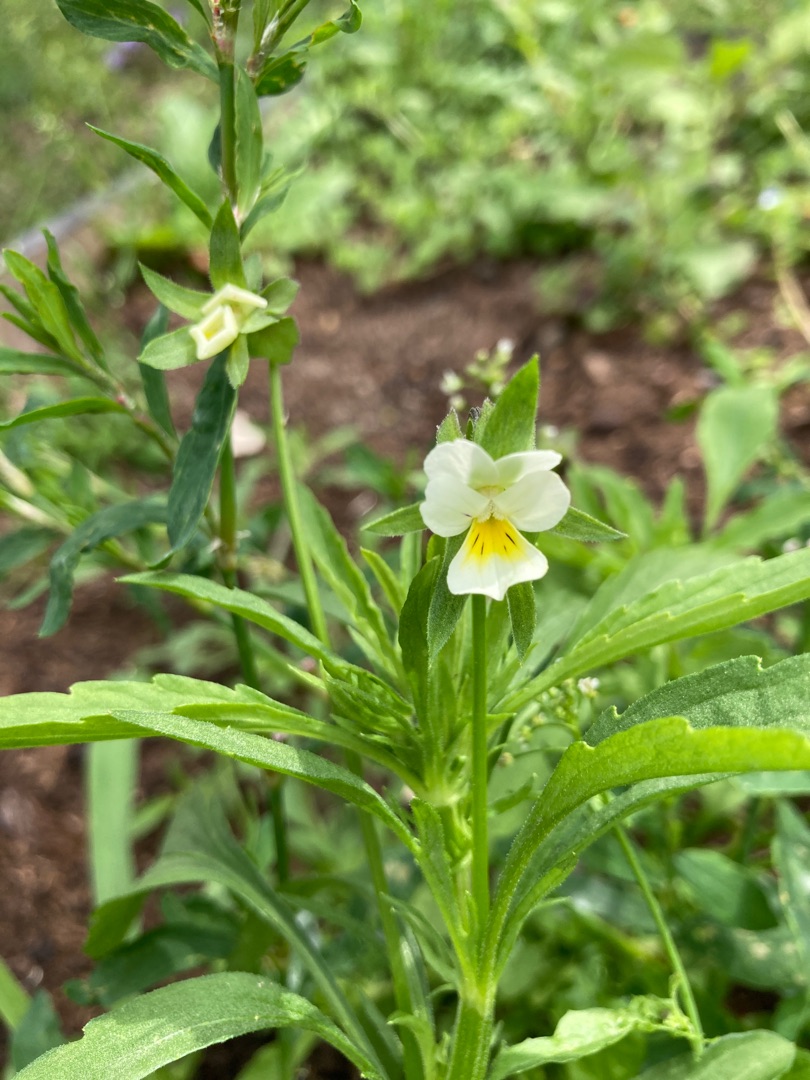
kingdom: Plantae
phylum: Tracheophyta
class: Magnoliopsida
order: Malpighiales
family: Violaceae
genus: Viola
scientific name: Viola arvensis
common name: Ager-stedmoderblomst
